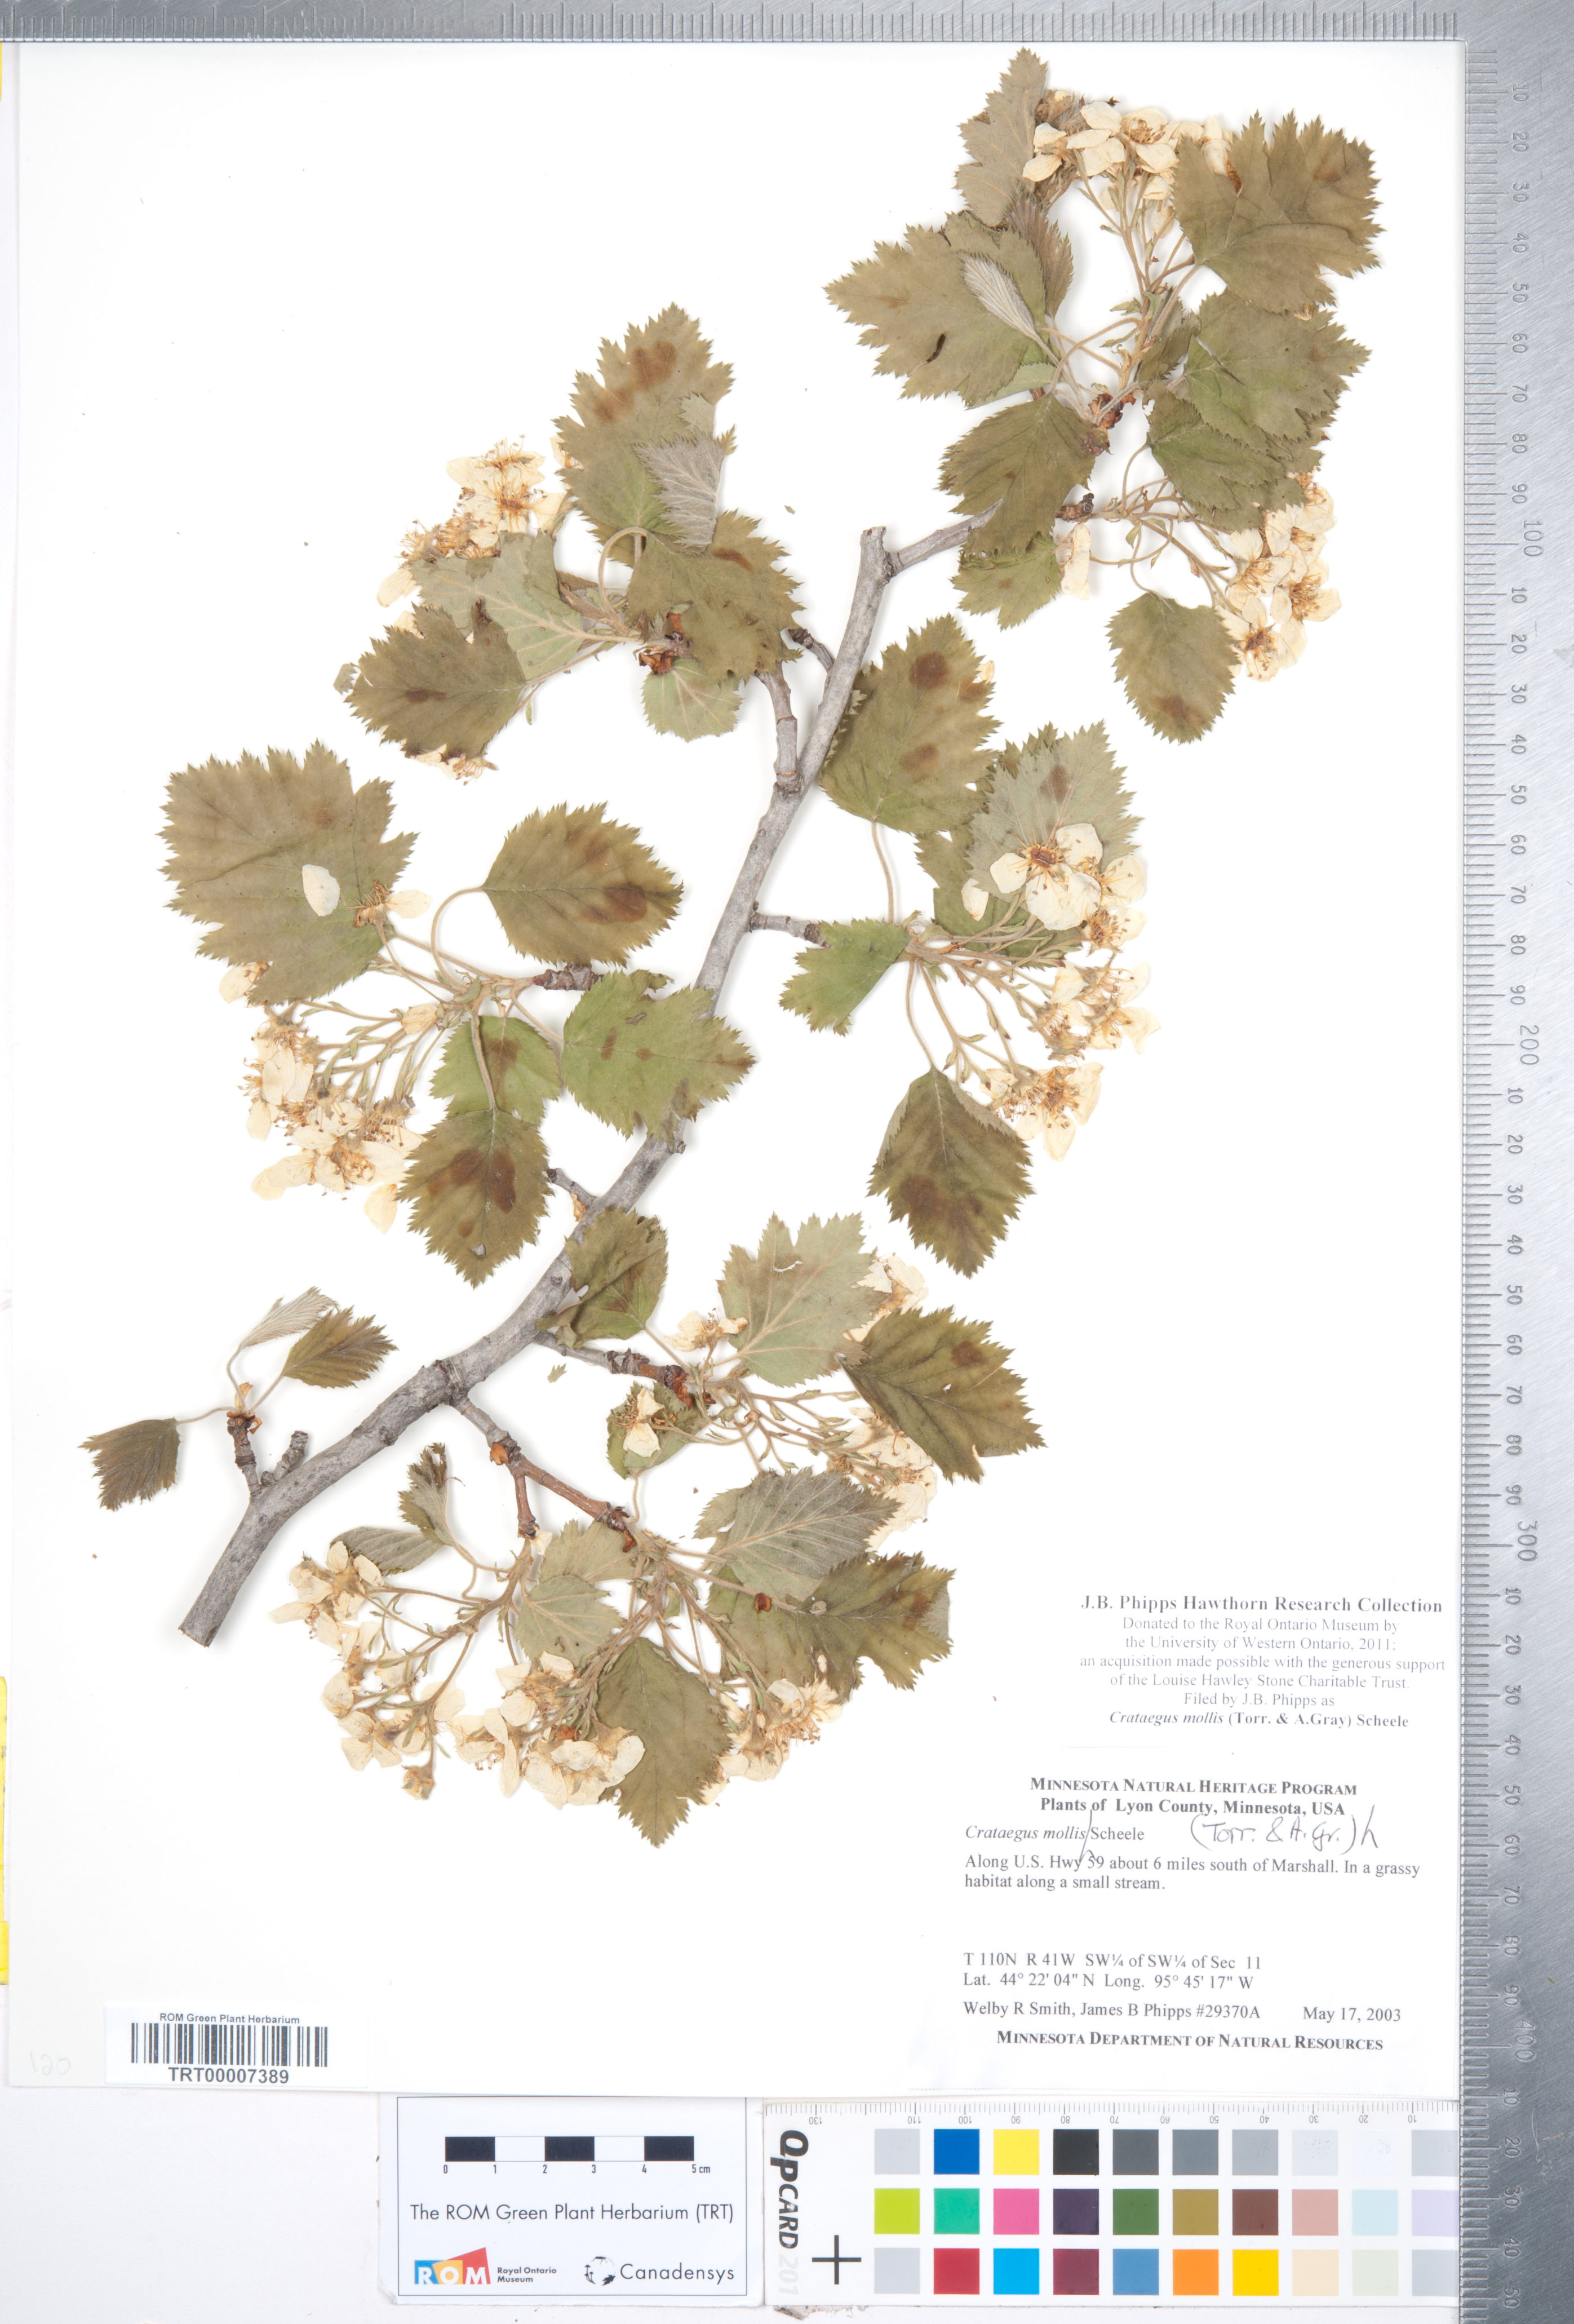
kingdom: Plantae
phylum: Tracheophyta
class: Magnoliopsida
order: Rosales
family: Rosaceae
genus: Crataegus
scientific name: Crataegus mollis
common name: Downy hawthorn
